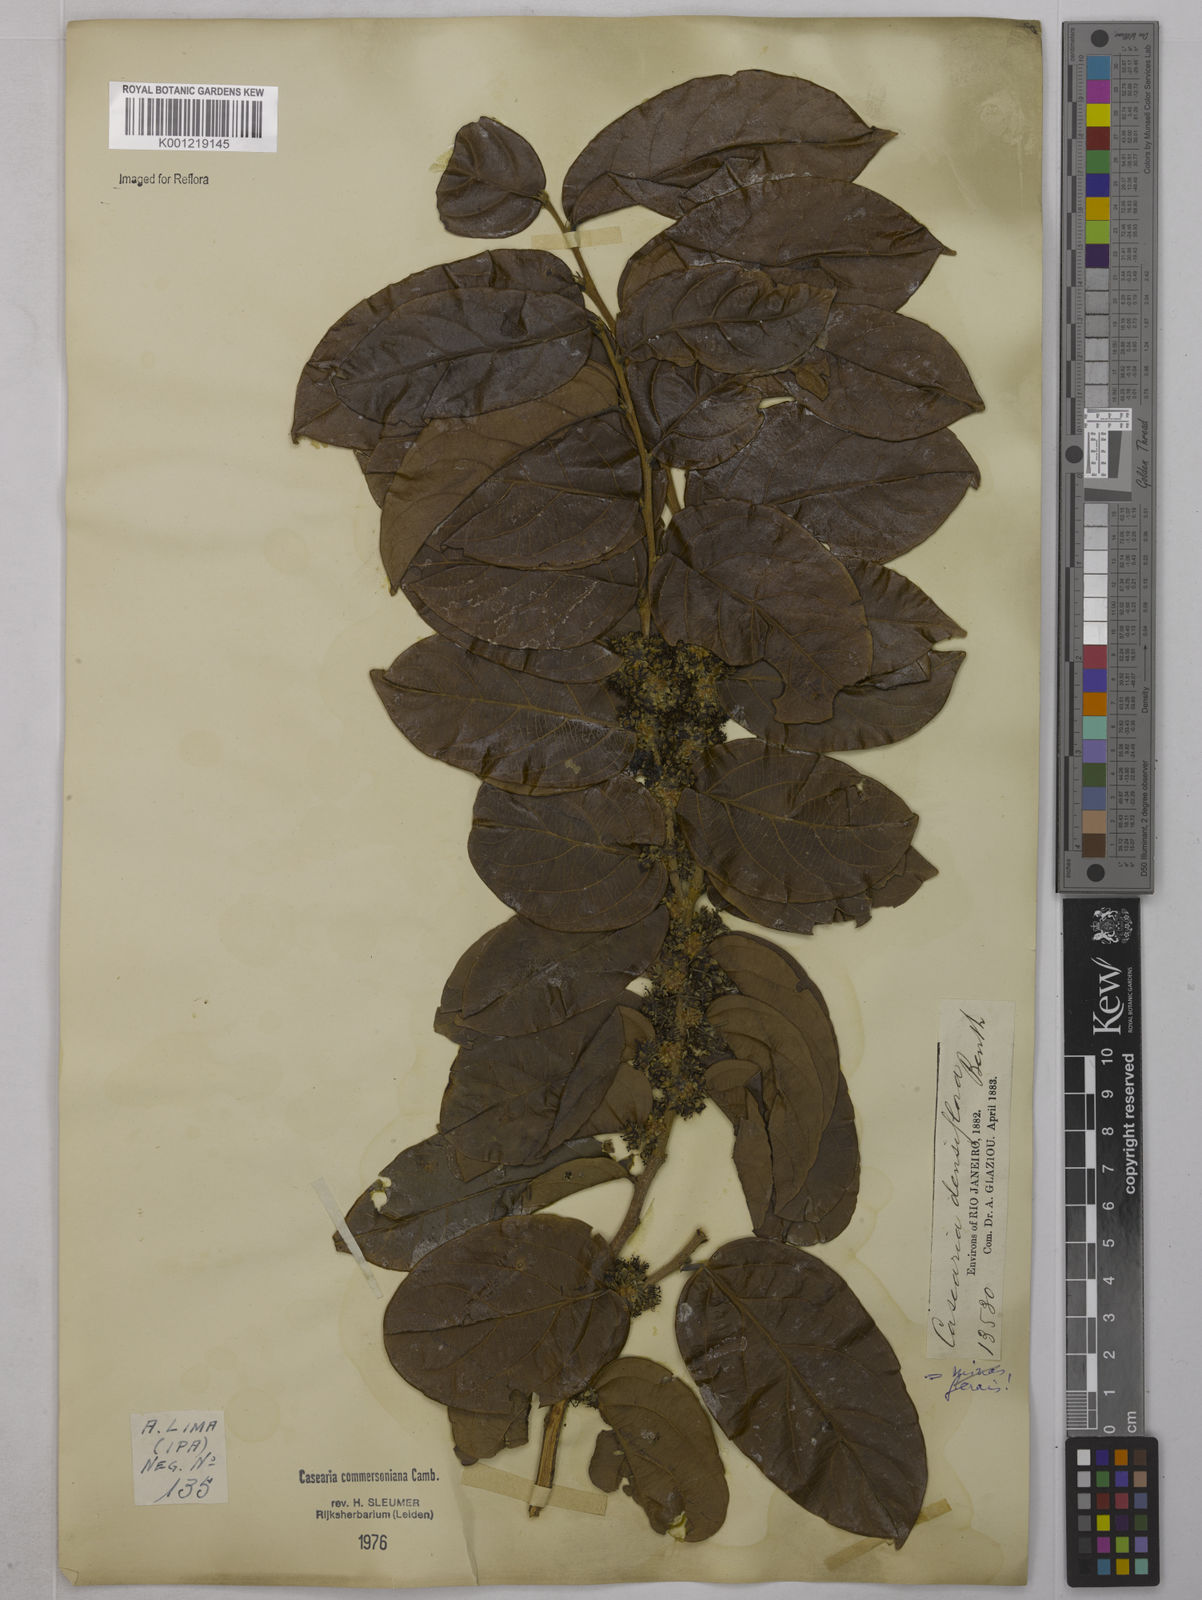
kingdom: Plantae
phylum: Tracheophyta
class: Magnoliopsida
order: Malpighiales
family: Salicaceae
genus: Piparea
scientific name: Piparea dentata
